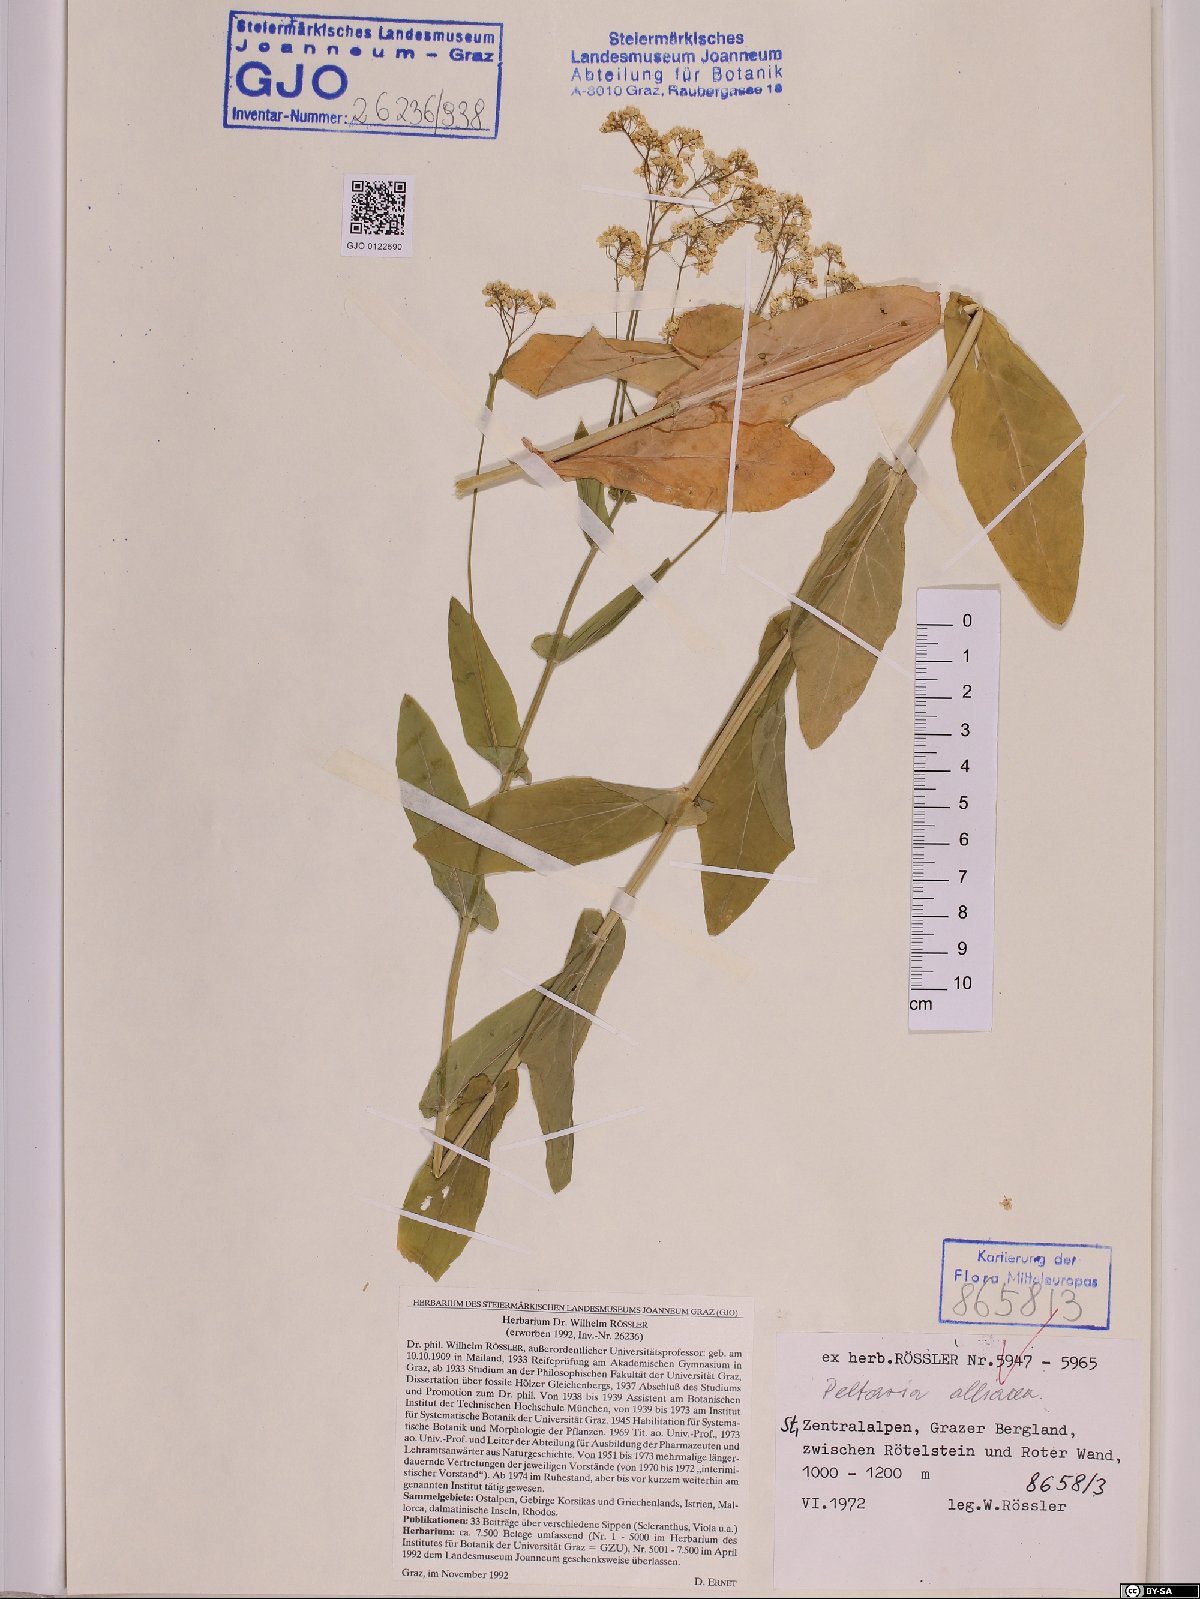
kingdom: Plantae
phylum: Tracheophyta
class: Magnoliopsida
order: Brassicales
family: Brassicaceae
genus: Peltaria
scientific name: Peltaria alliacea
